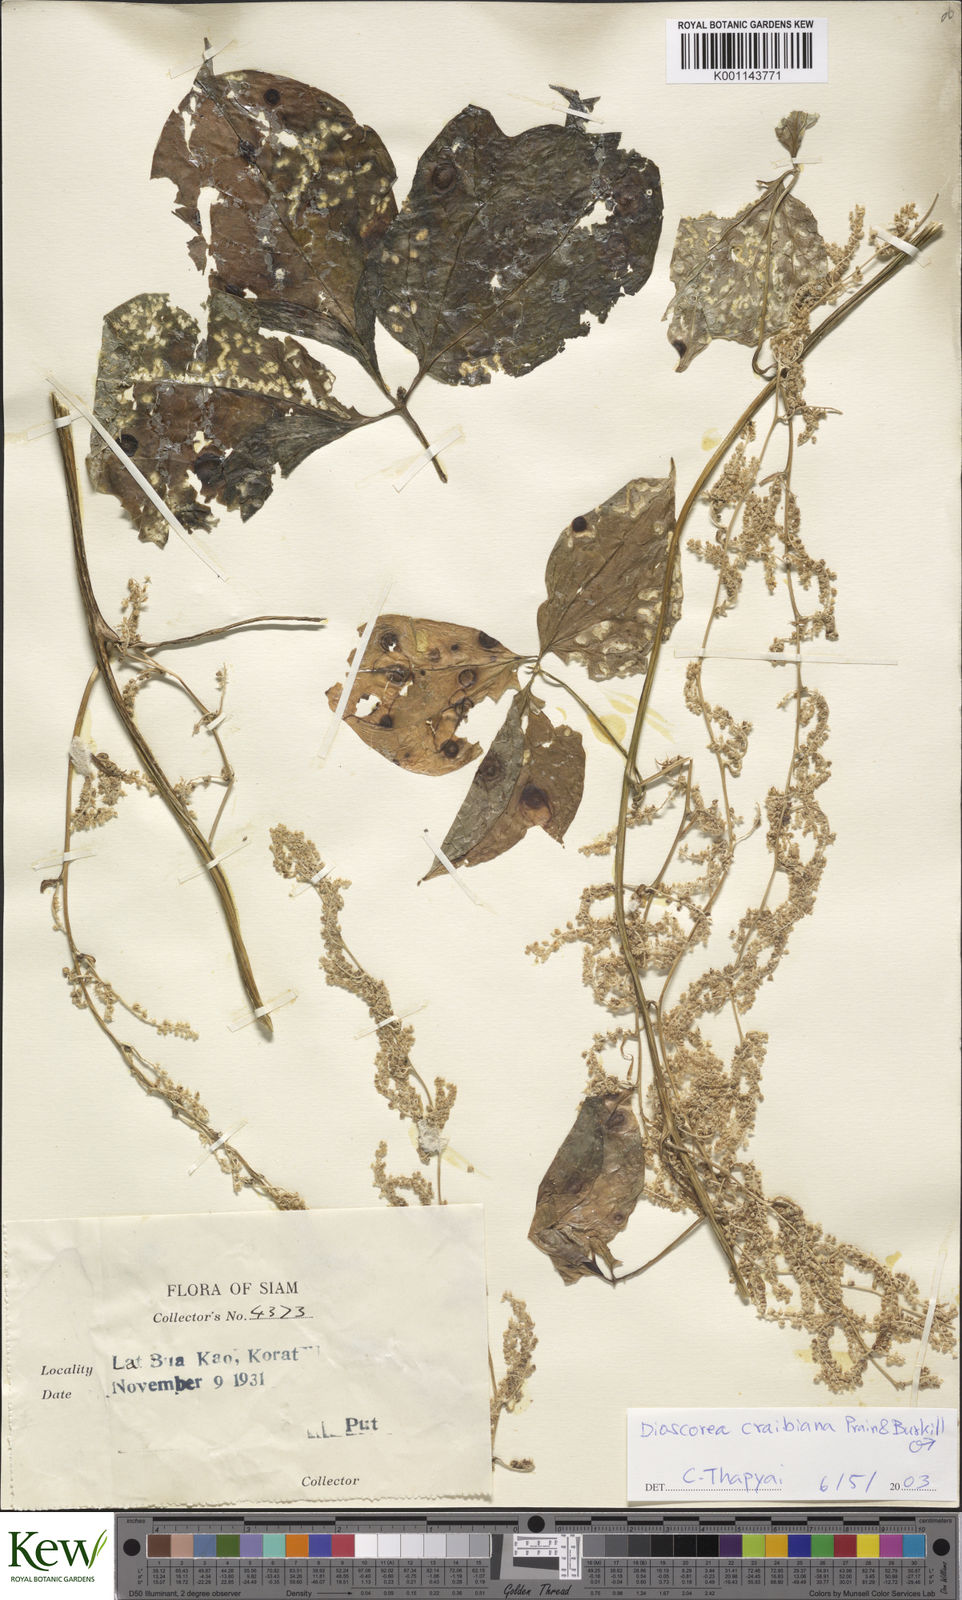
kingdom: Plantae
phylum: Tracheophyta
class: Liliopsida
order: Dioscoreales
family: Dioscoreaceae
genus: Dioscorea
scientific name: Dioscorea craibiana
